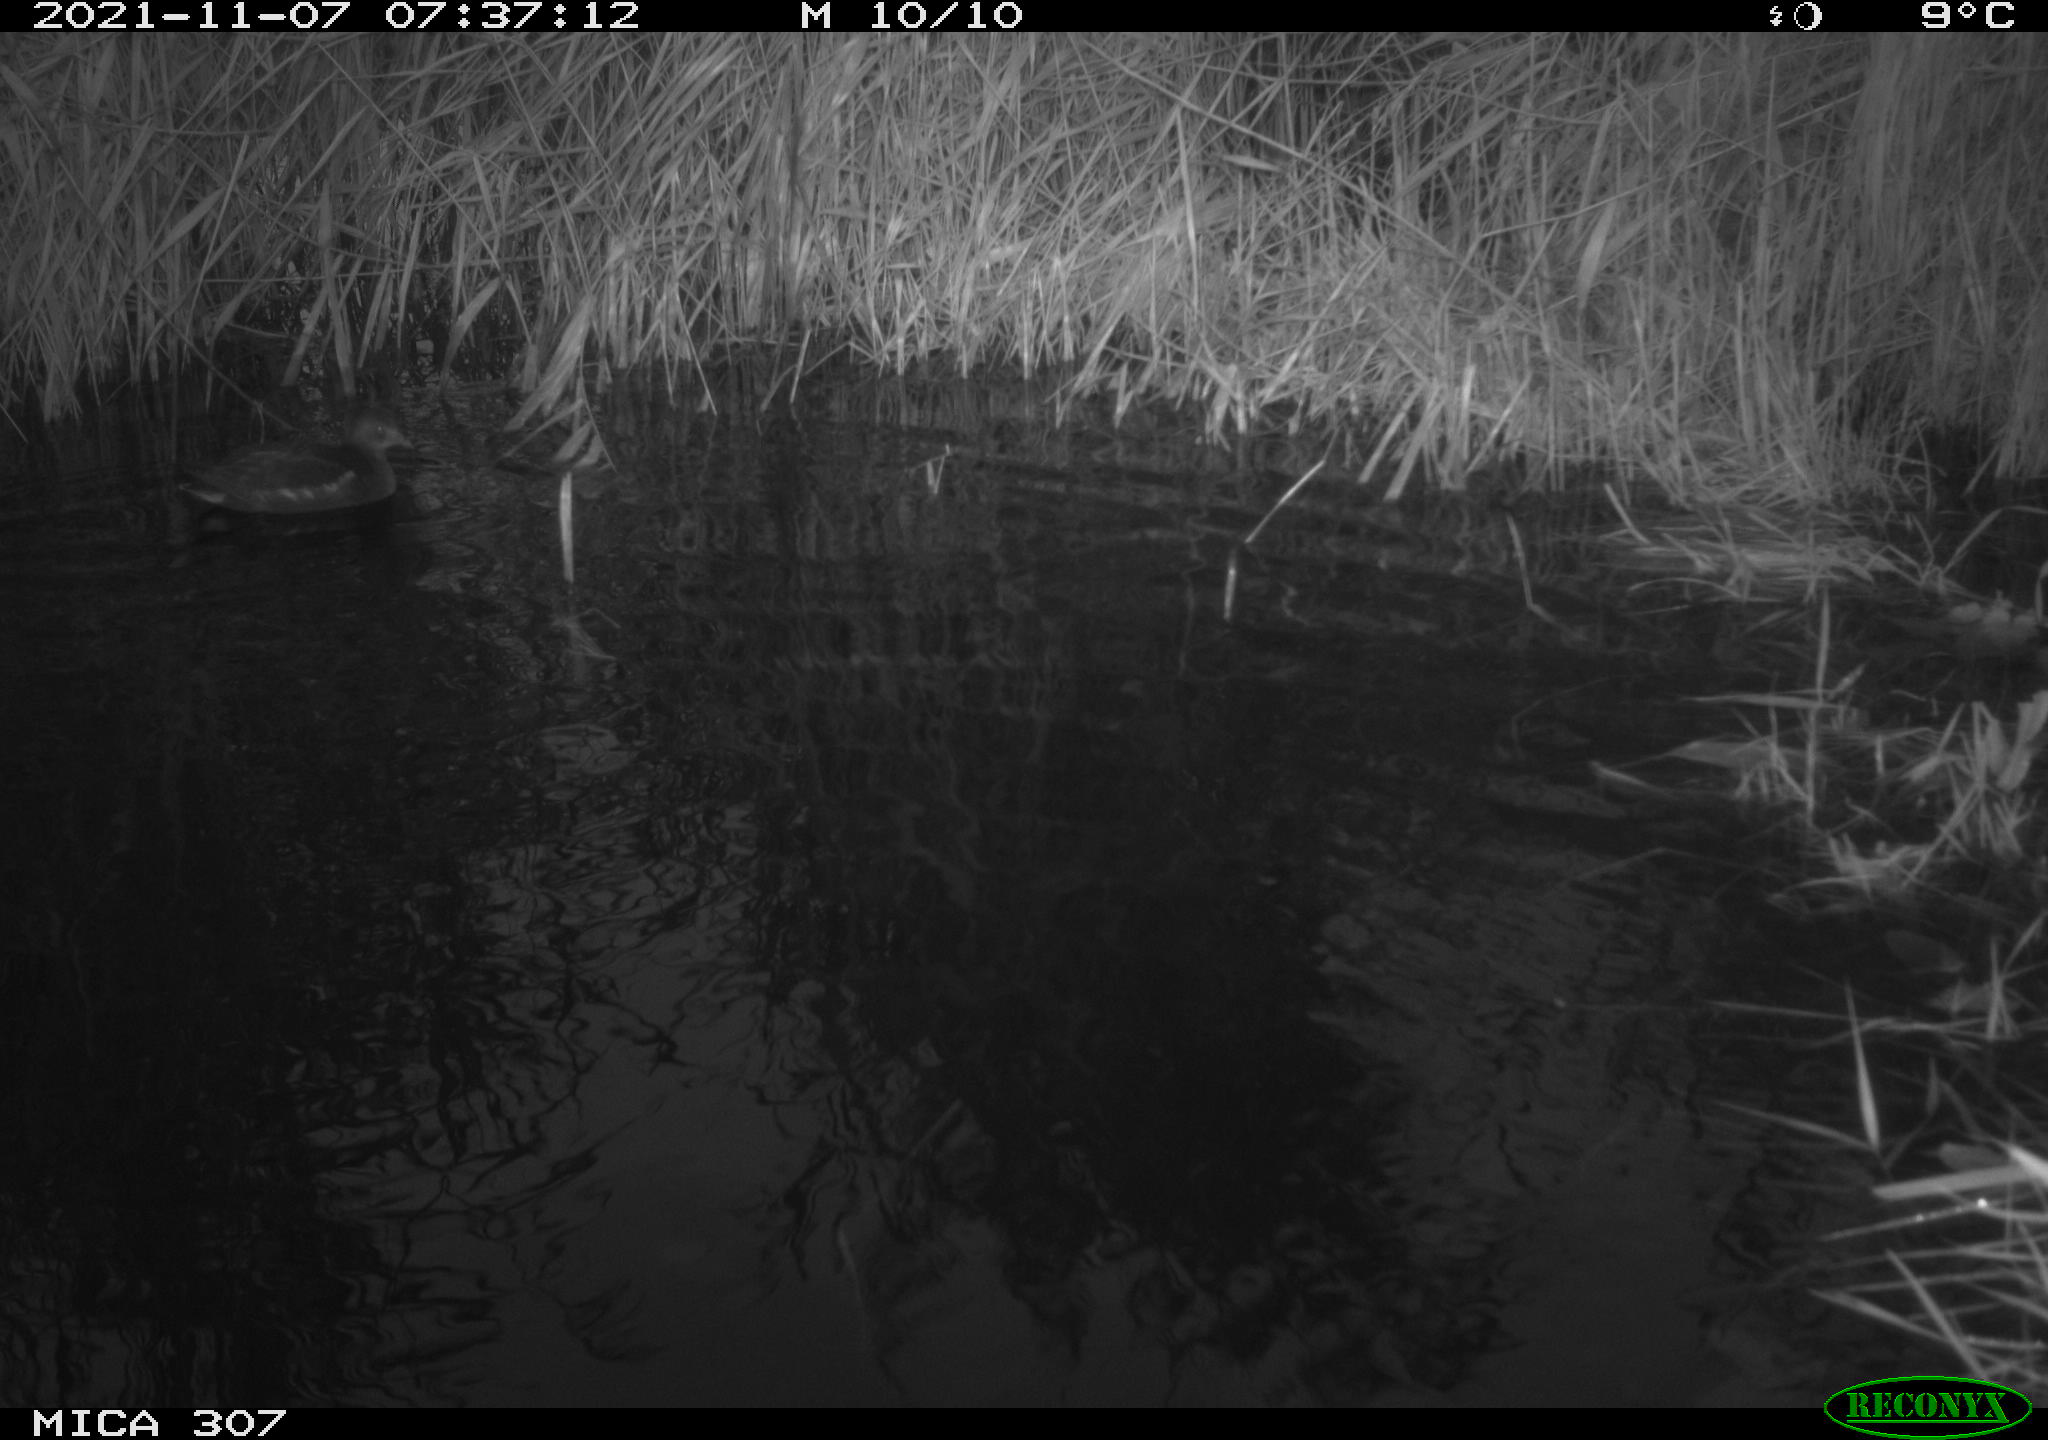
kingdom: Animalia
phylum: Chordata
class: Aves
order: Gruiformes
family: Rallidae
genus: Gallinula
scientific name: Gallinula chloropus
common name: Common moorhen
